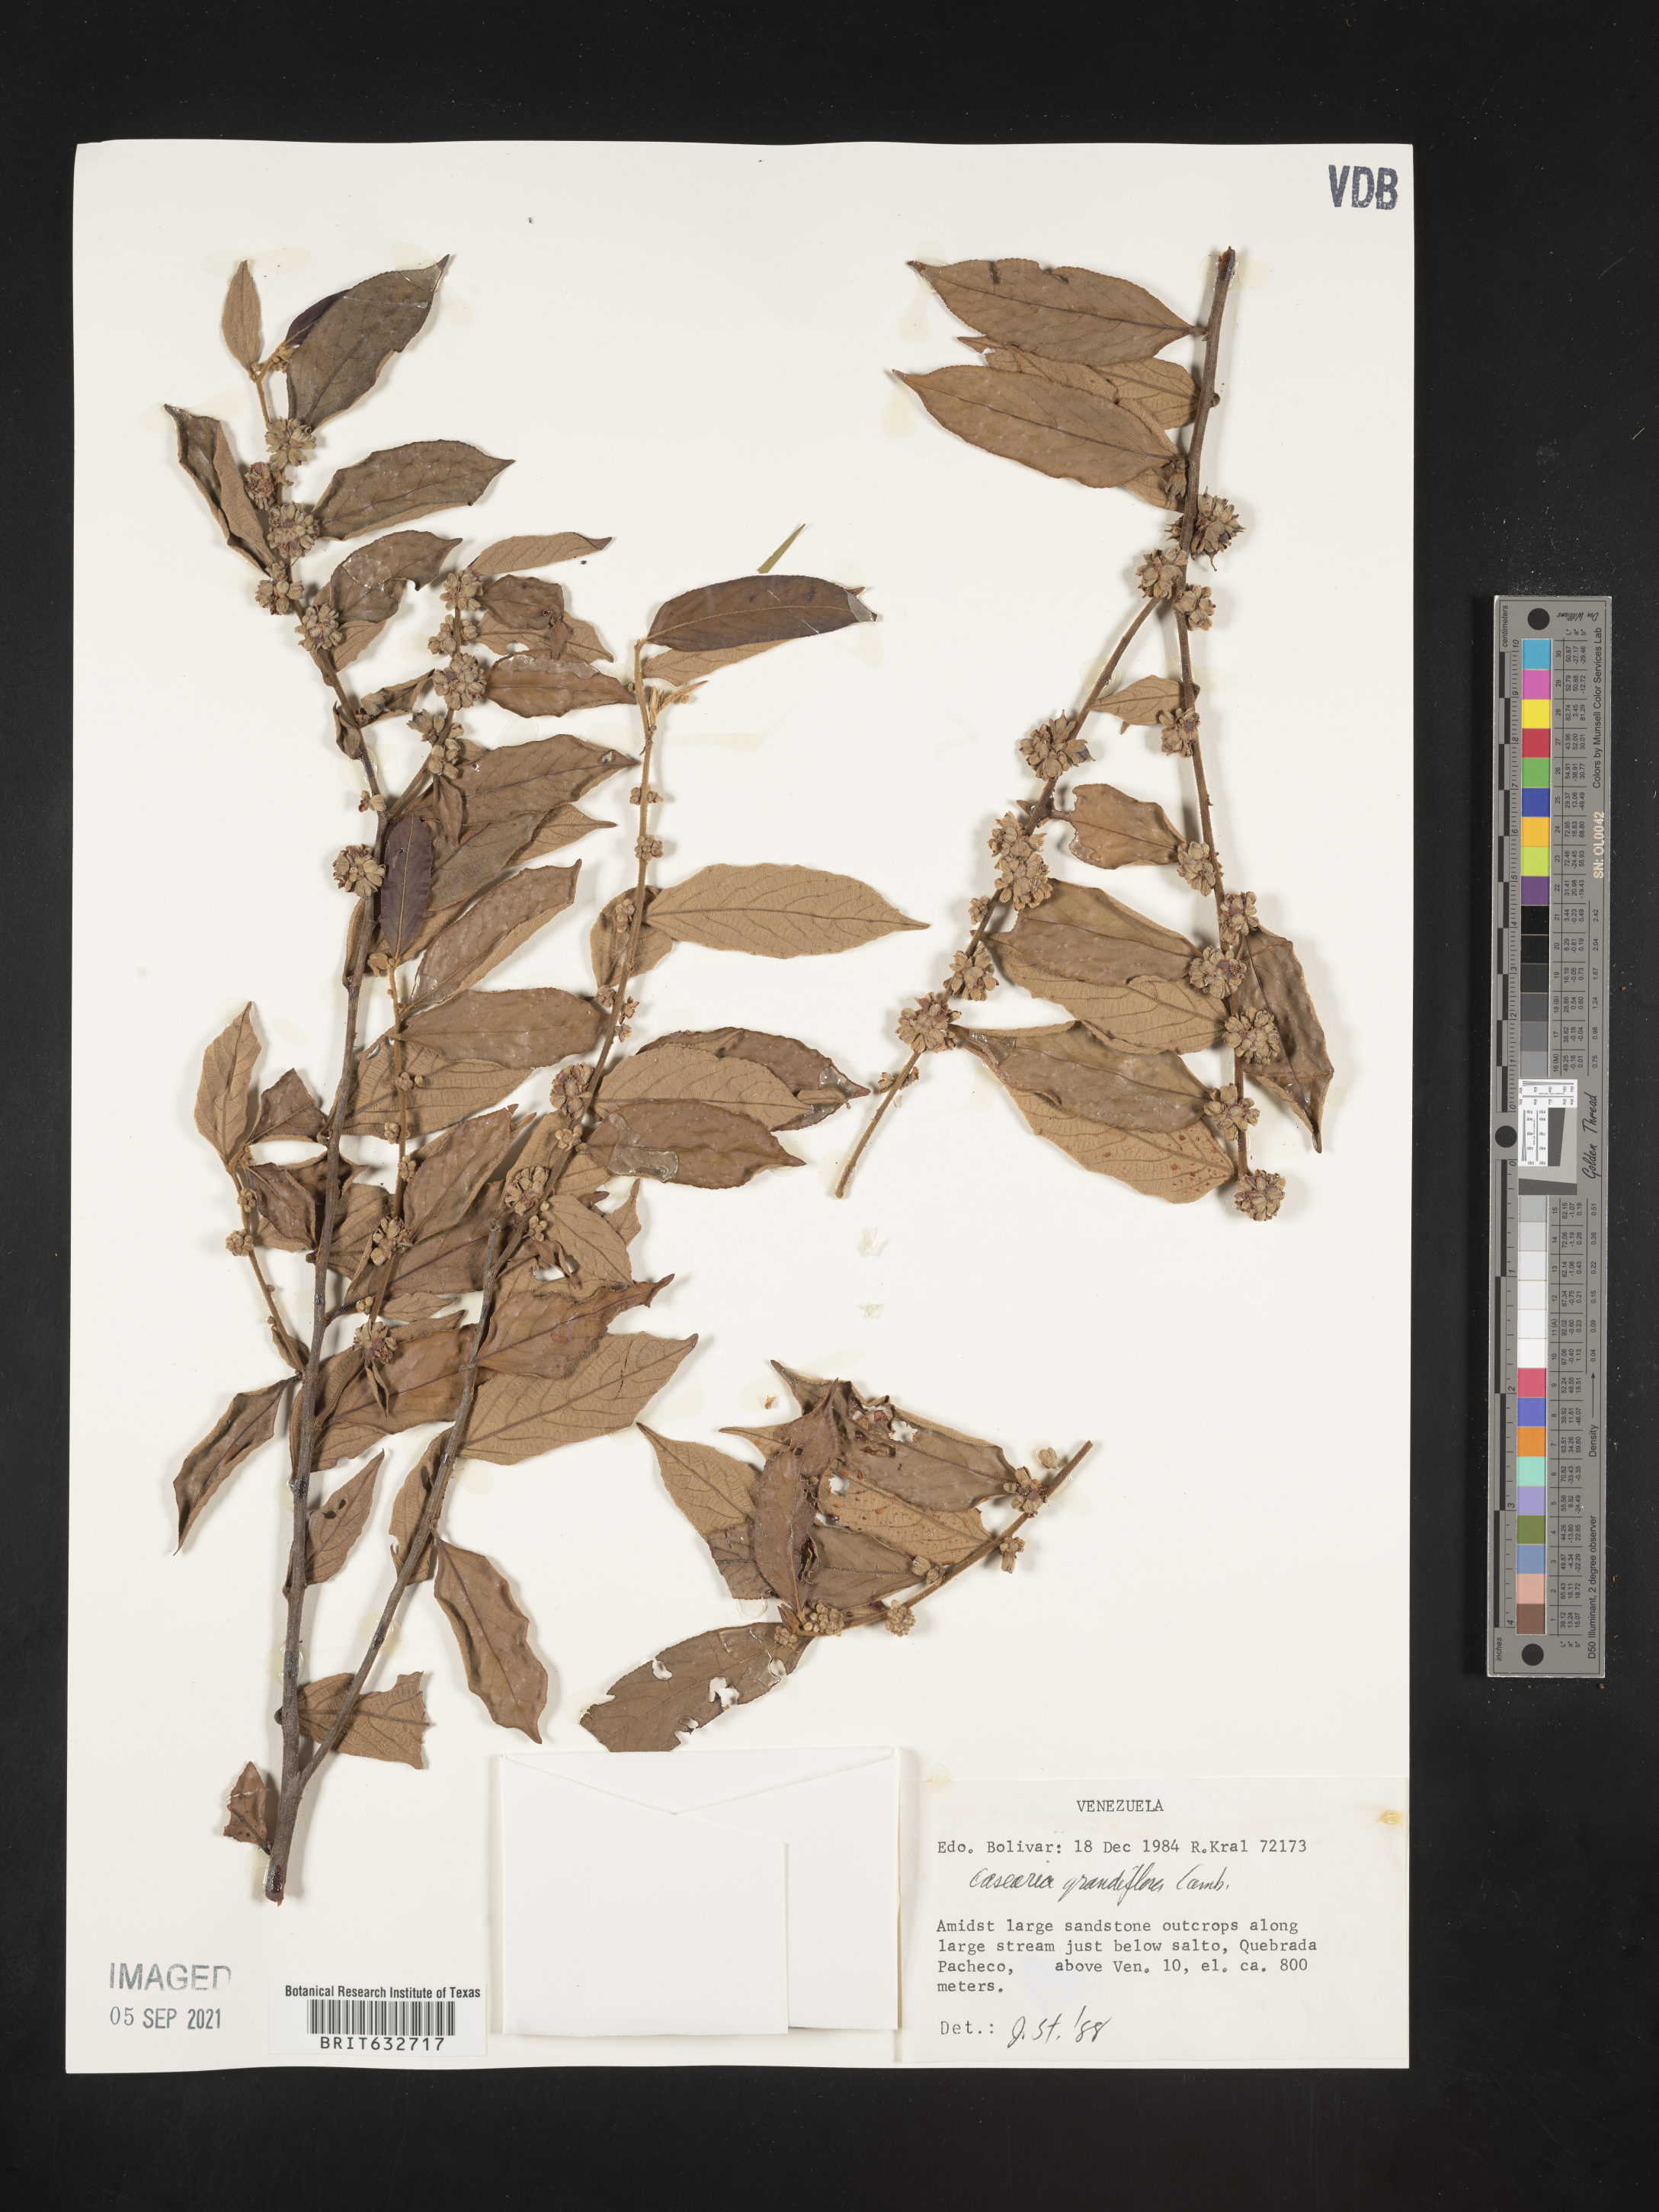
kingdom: Plantae
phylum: Tracheophyta
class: Magnoliopsida
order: Malpighiales
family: Salicaceae
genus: Casearia
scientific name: Casearia
